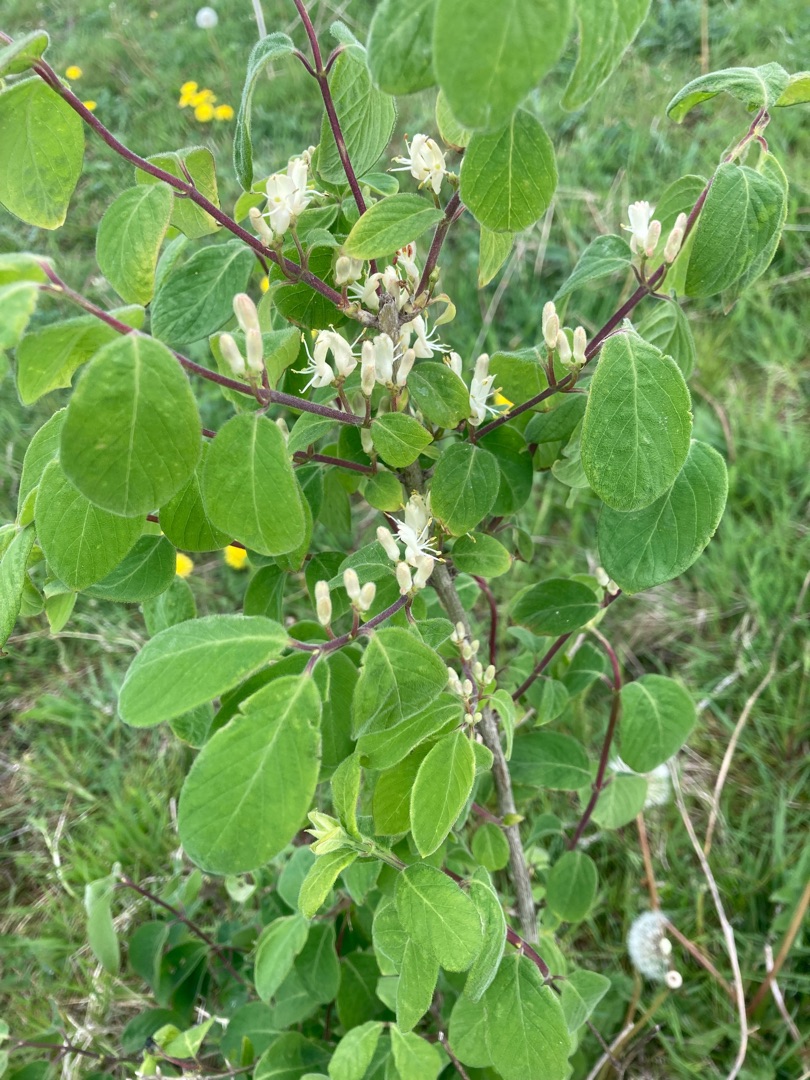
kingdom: Plantae
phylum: Tracheophyta
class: Magnoliopsida
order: Dipsacales
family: Caprifoliaceae
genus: Lonicera
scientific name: Lonicera xylosteum
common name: Dunet gedeblad
